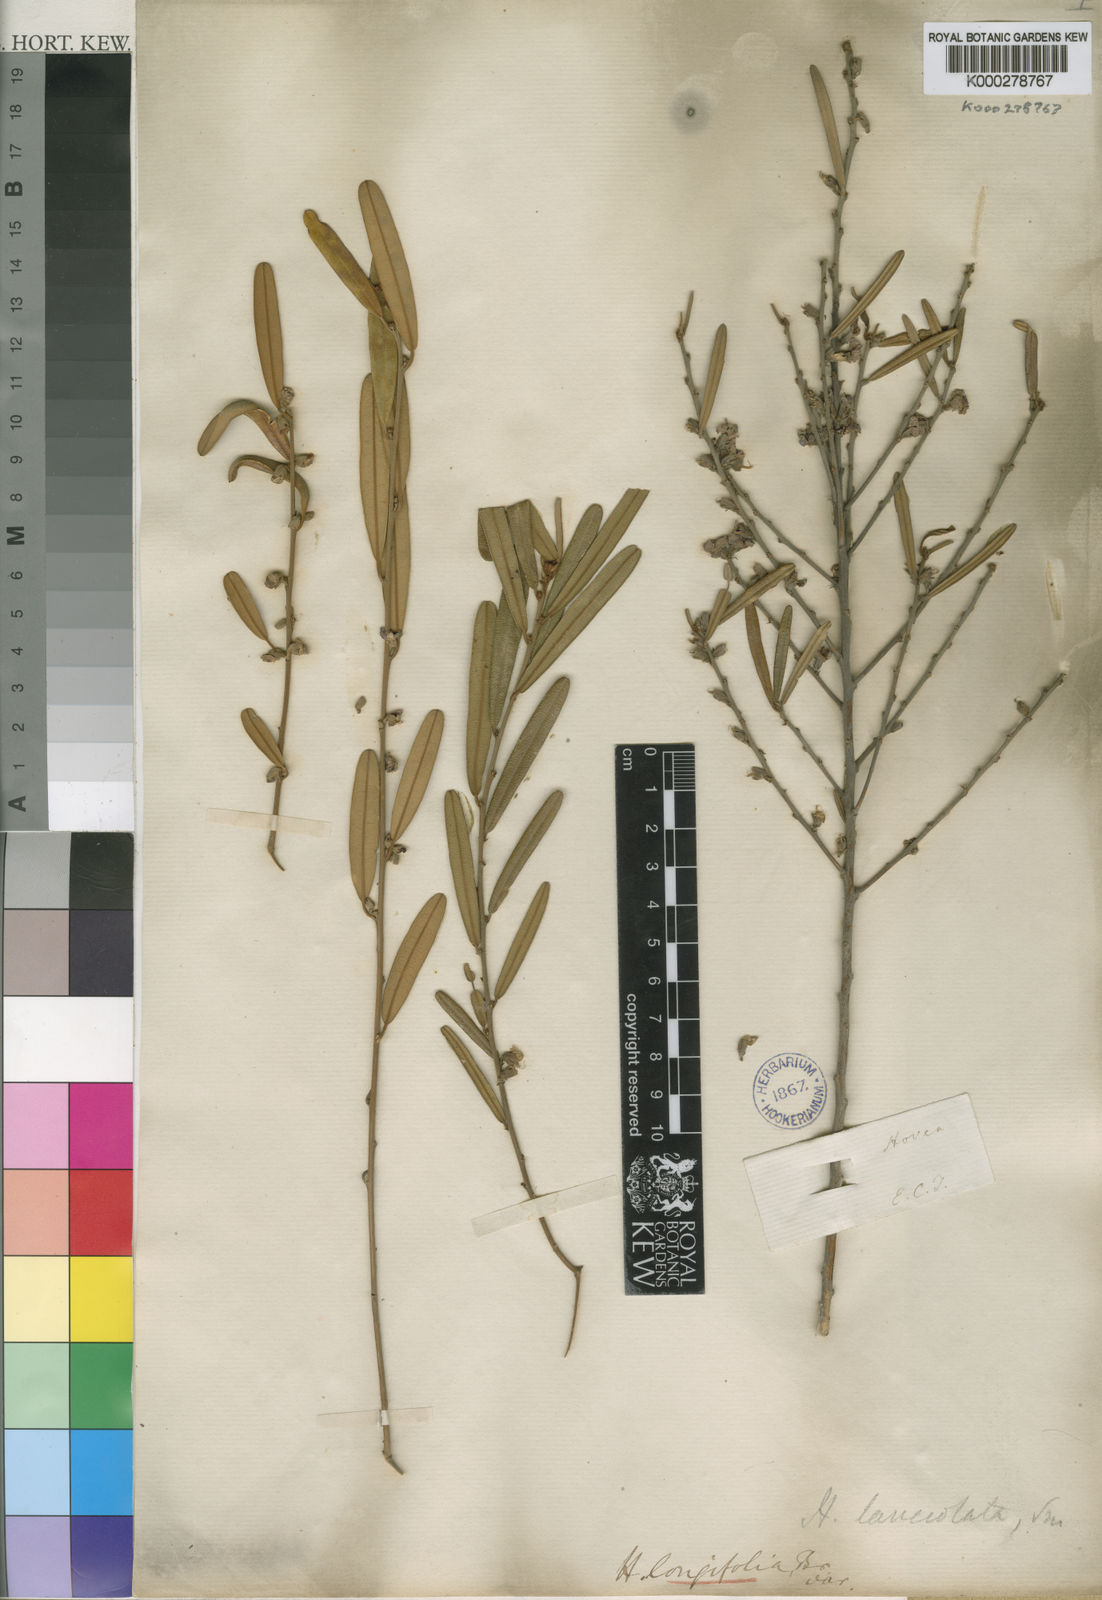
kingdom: Plantae
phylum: Tracheophyta
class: Magnoliopsida
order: Fabales
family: Fabaceae
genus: Hovea
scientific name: Hovea lanceolata
